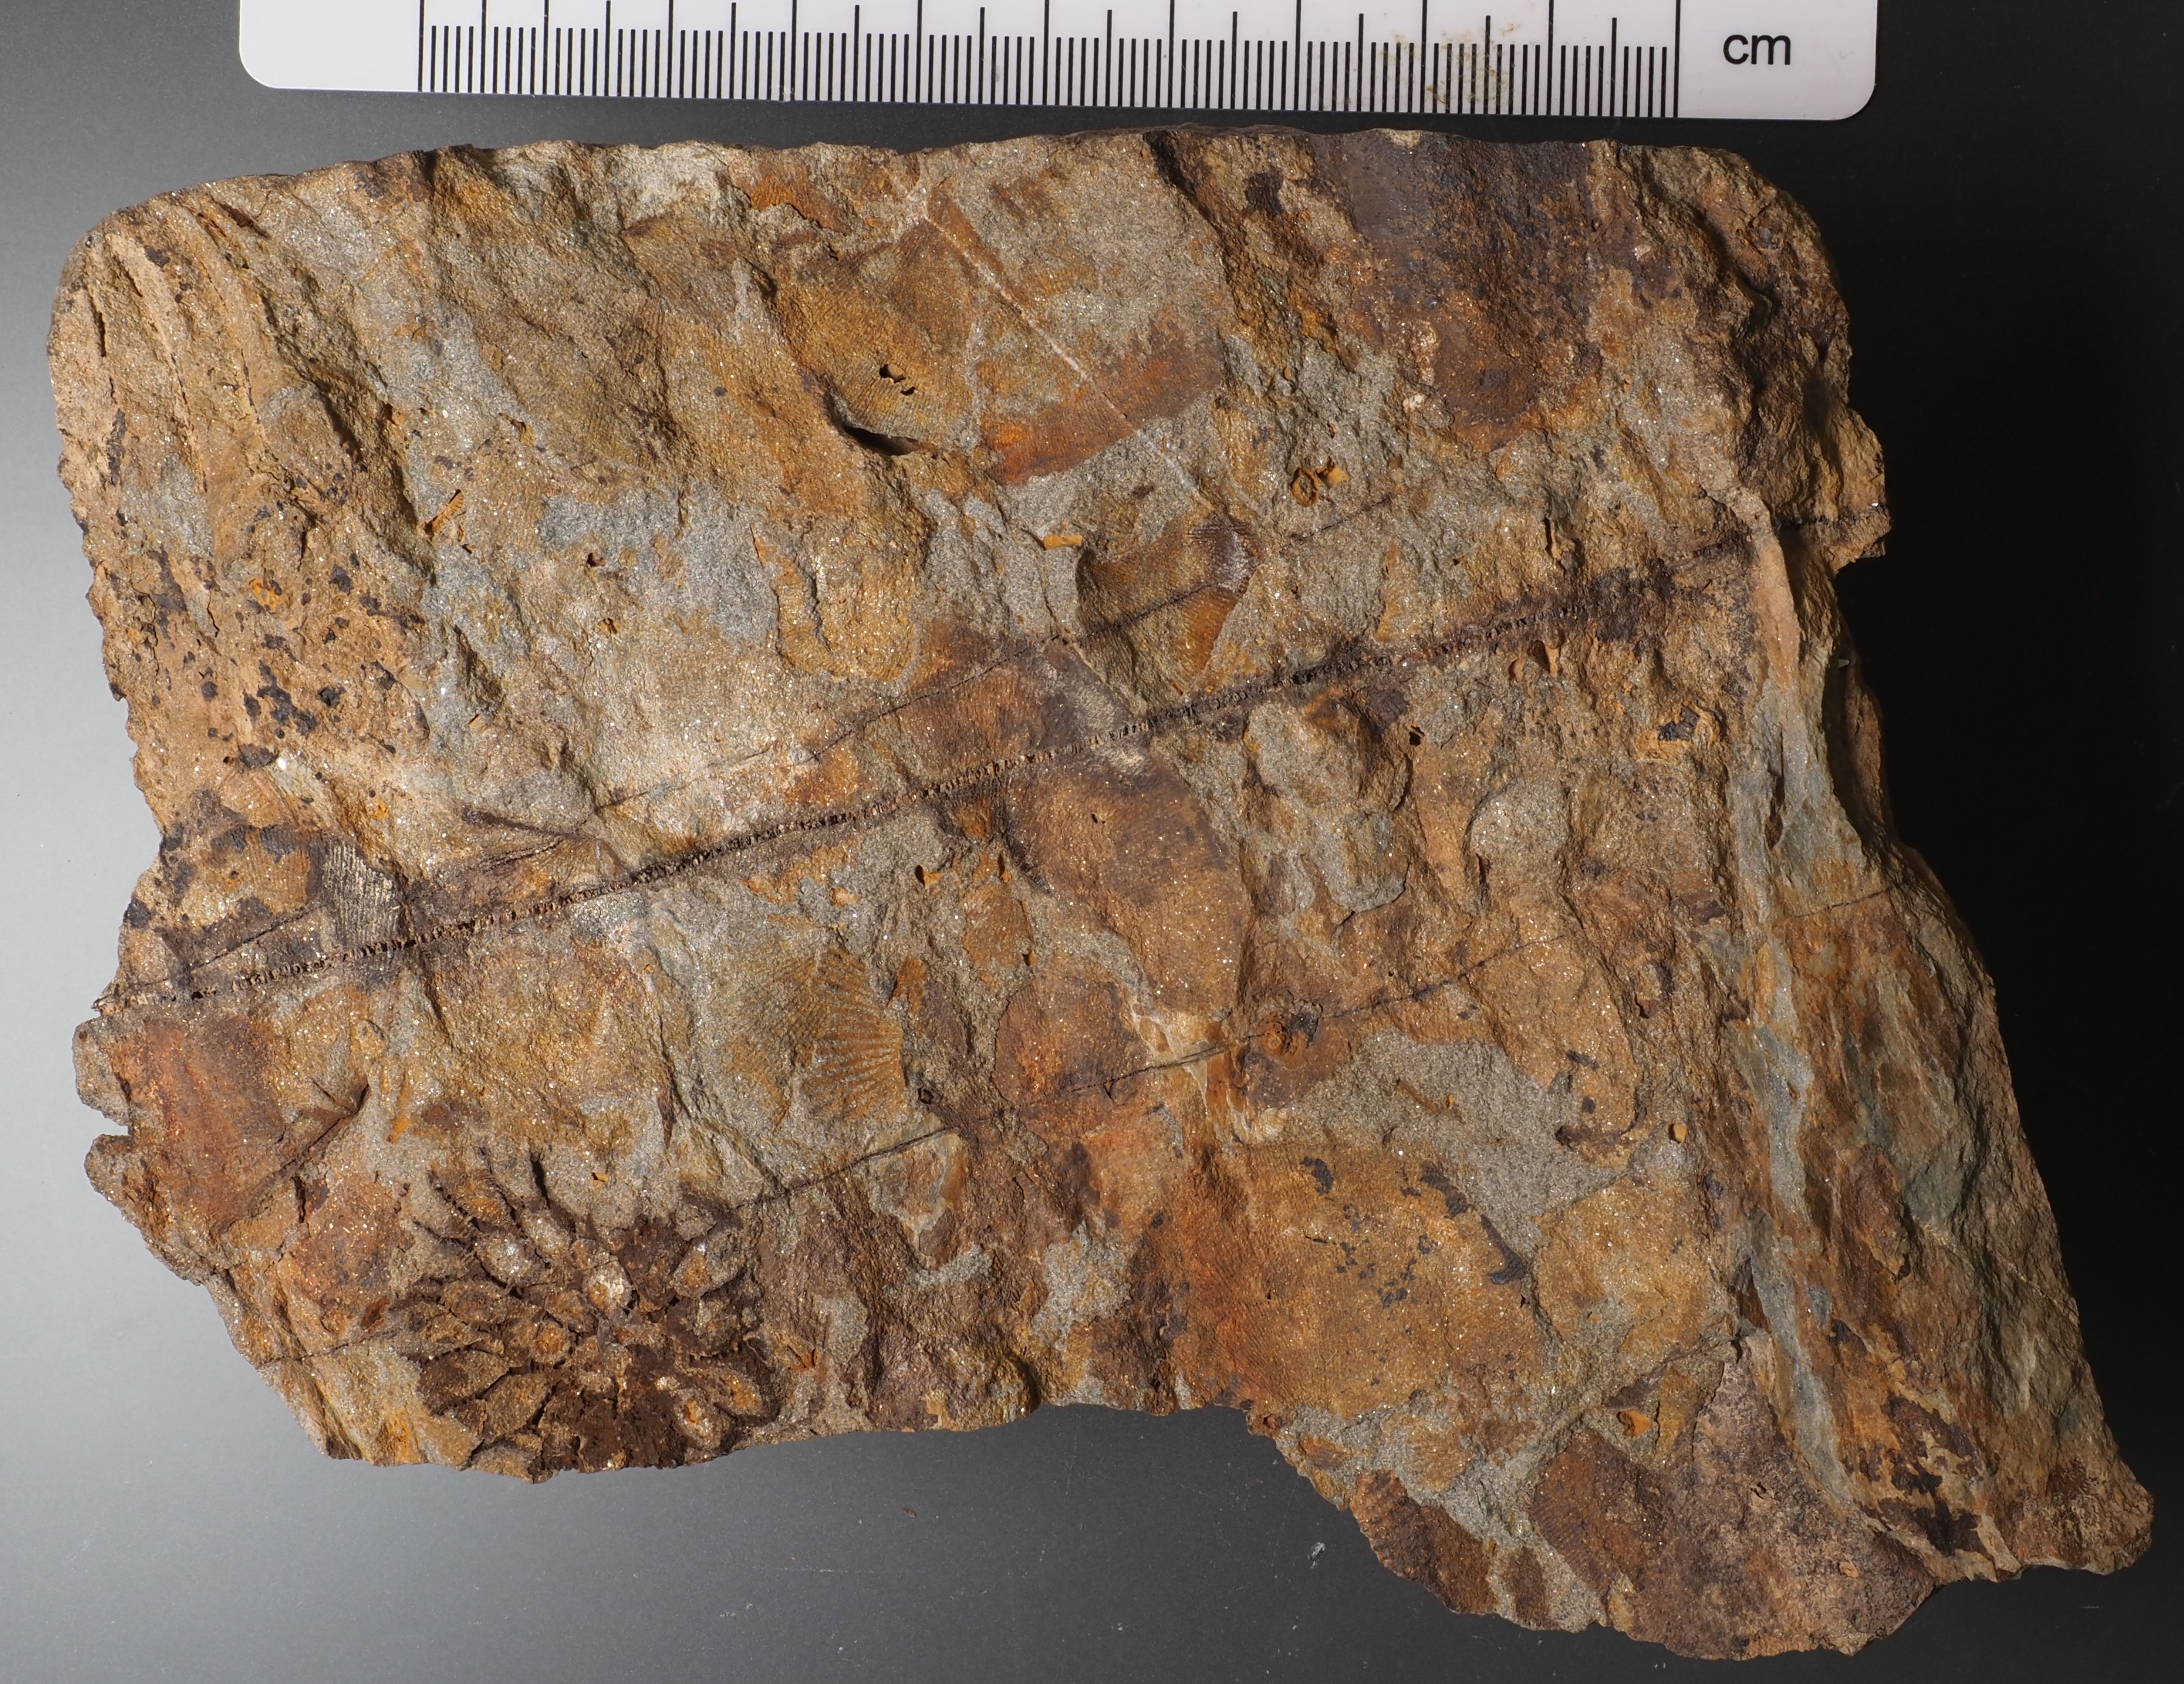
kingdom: Animalia
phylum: Cnidaria
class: Anthozoa
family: Micheliniidae
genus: Pleurodictyum
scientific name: Pleurodictyum
